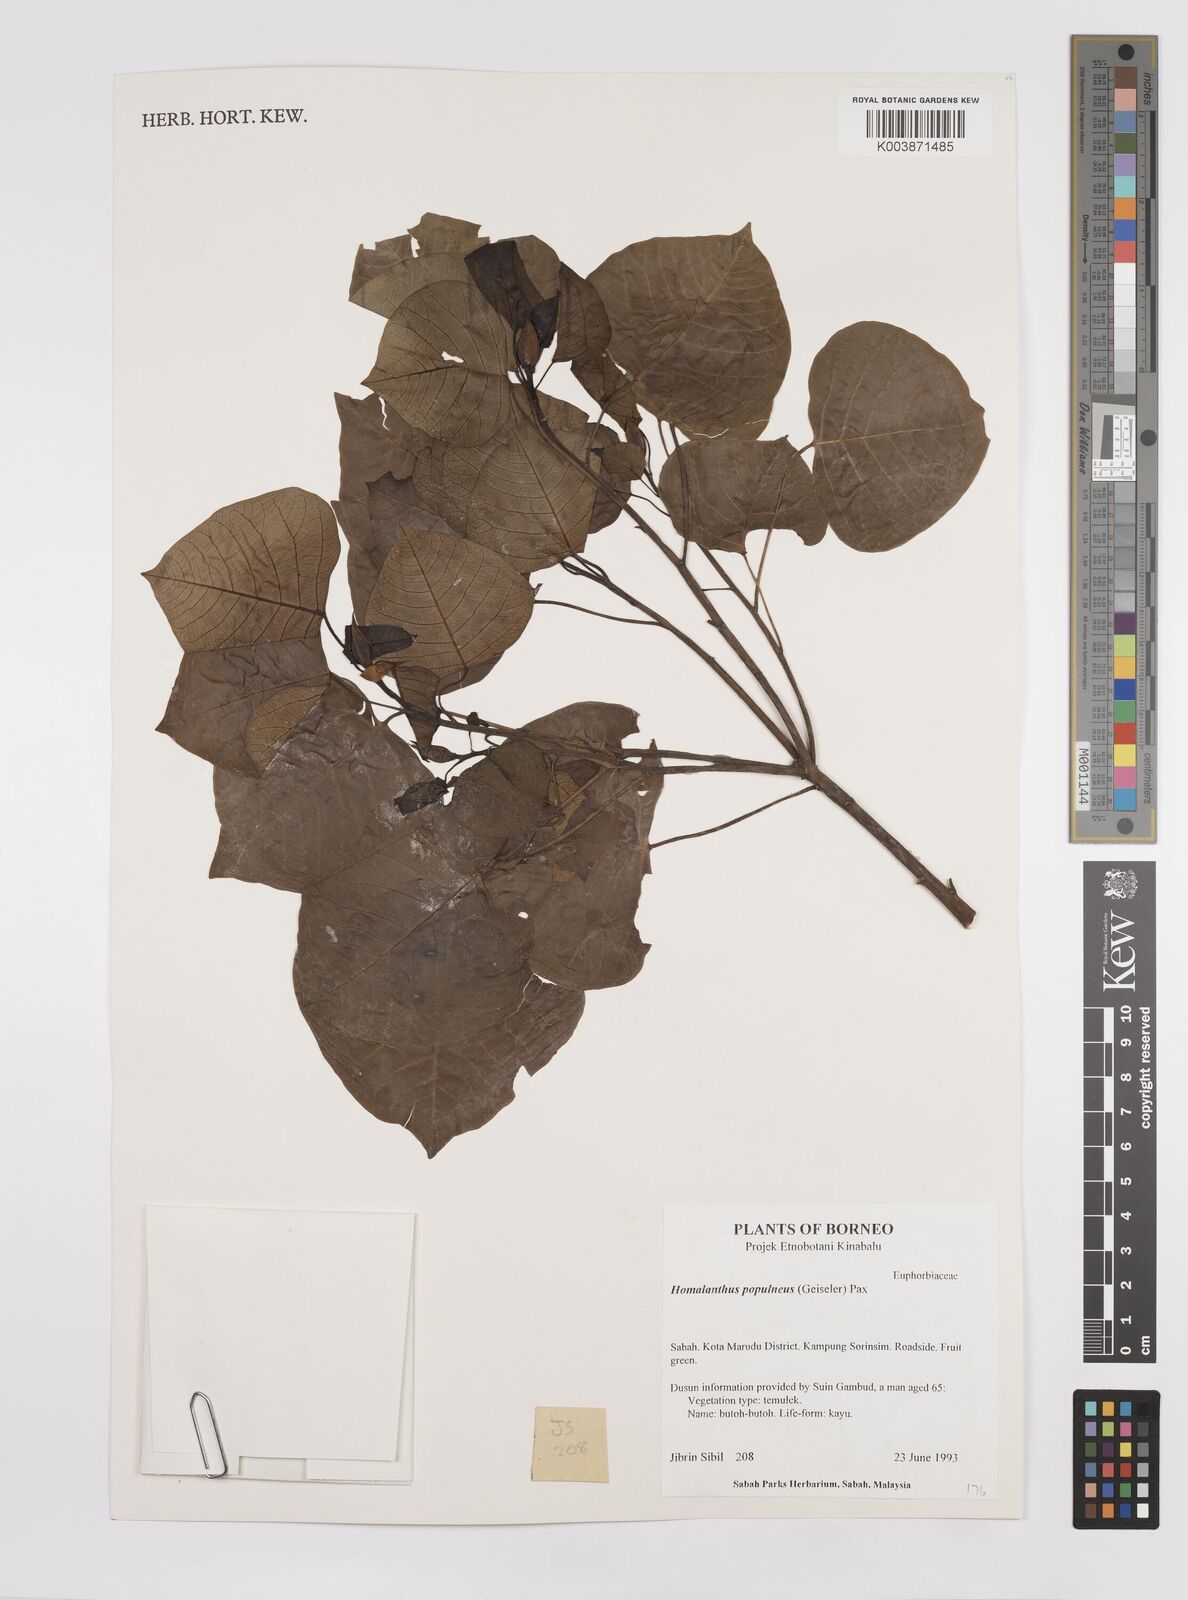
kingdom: Plantae
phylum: Tracheophyta
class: Magnoliopsida
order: Malpighiales
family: Euphorbiaceae
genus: Homalanthus
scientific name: Homalanthus populneus
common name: Spurge
